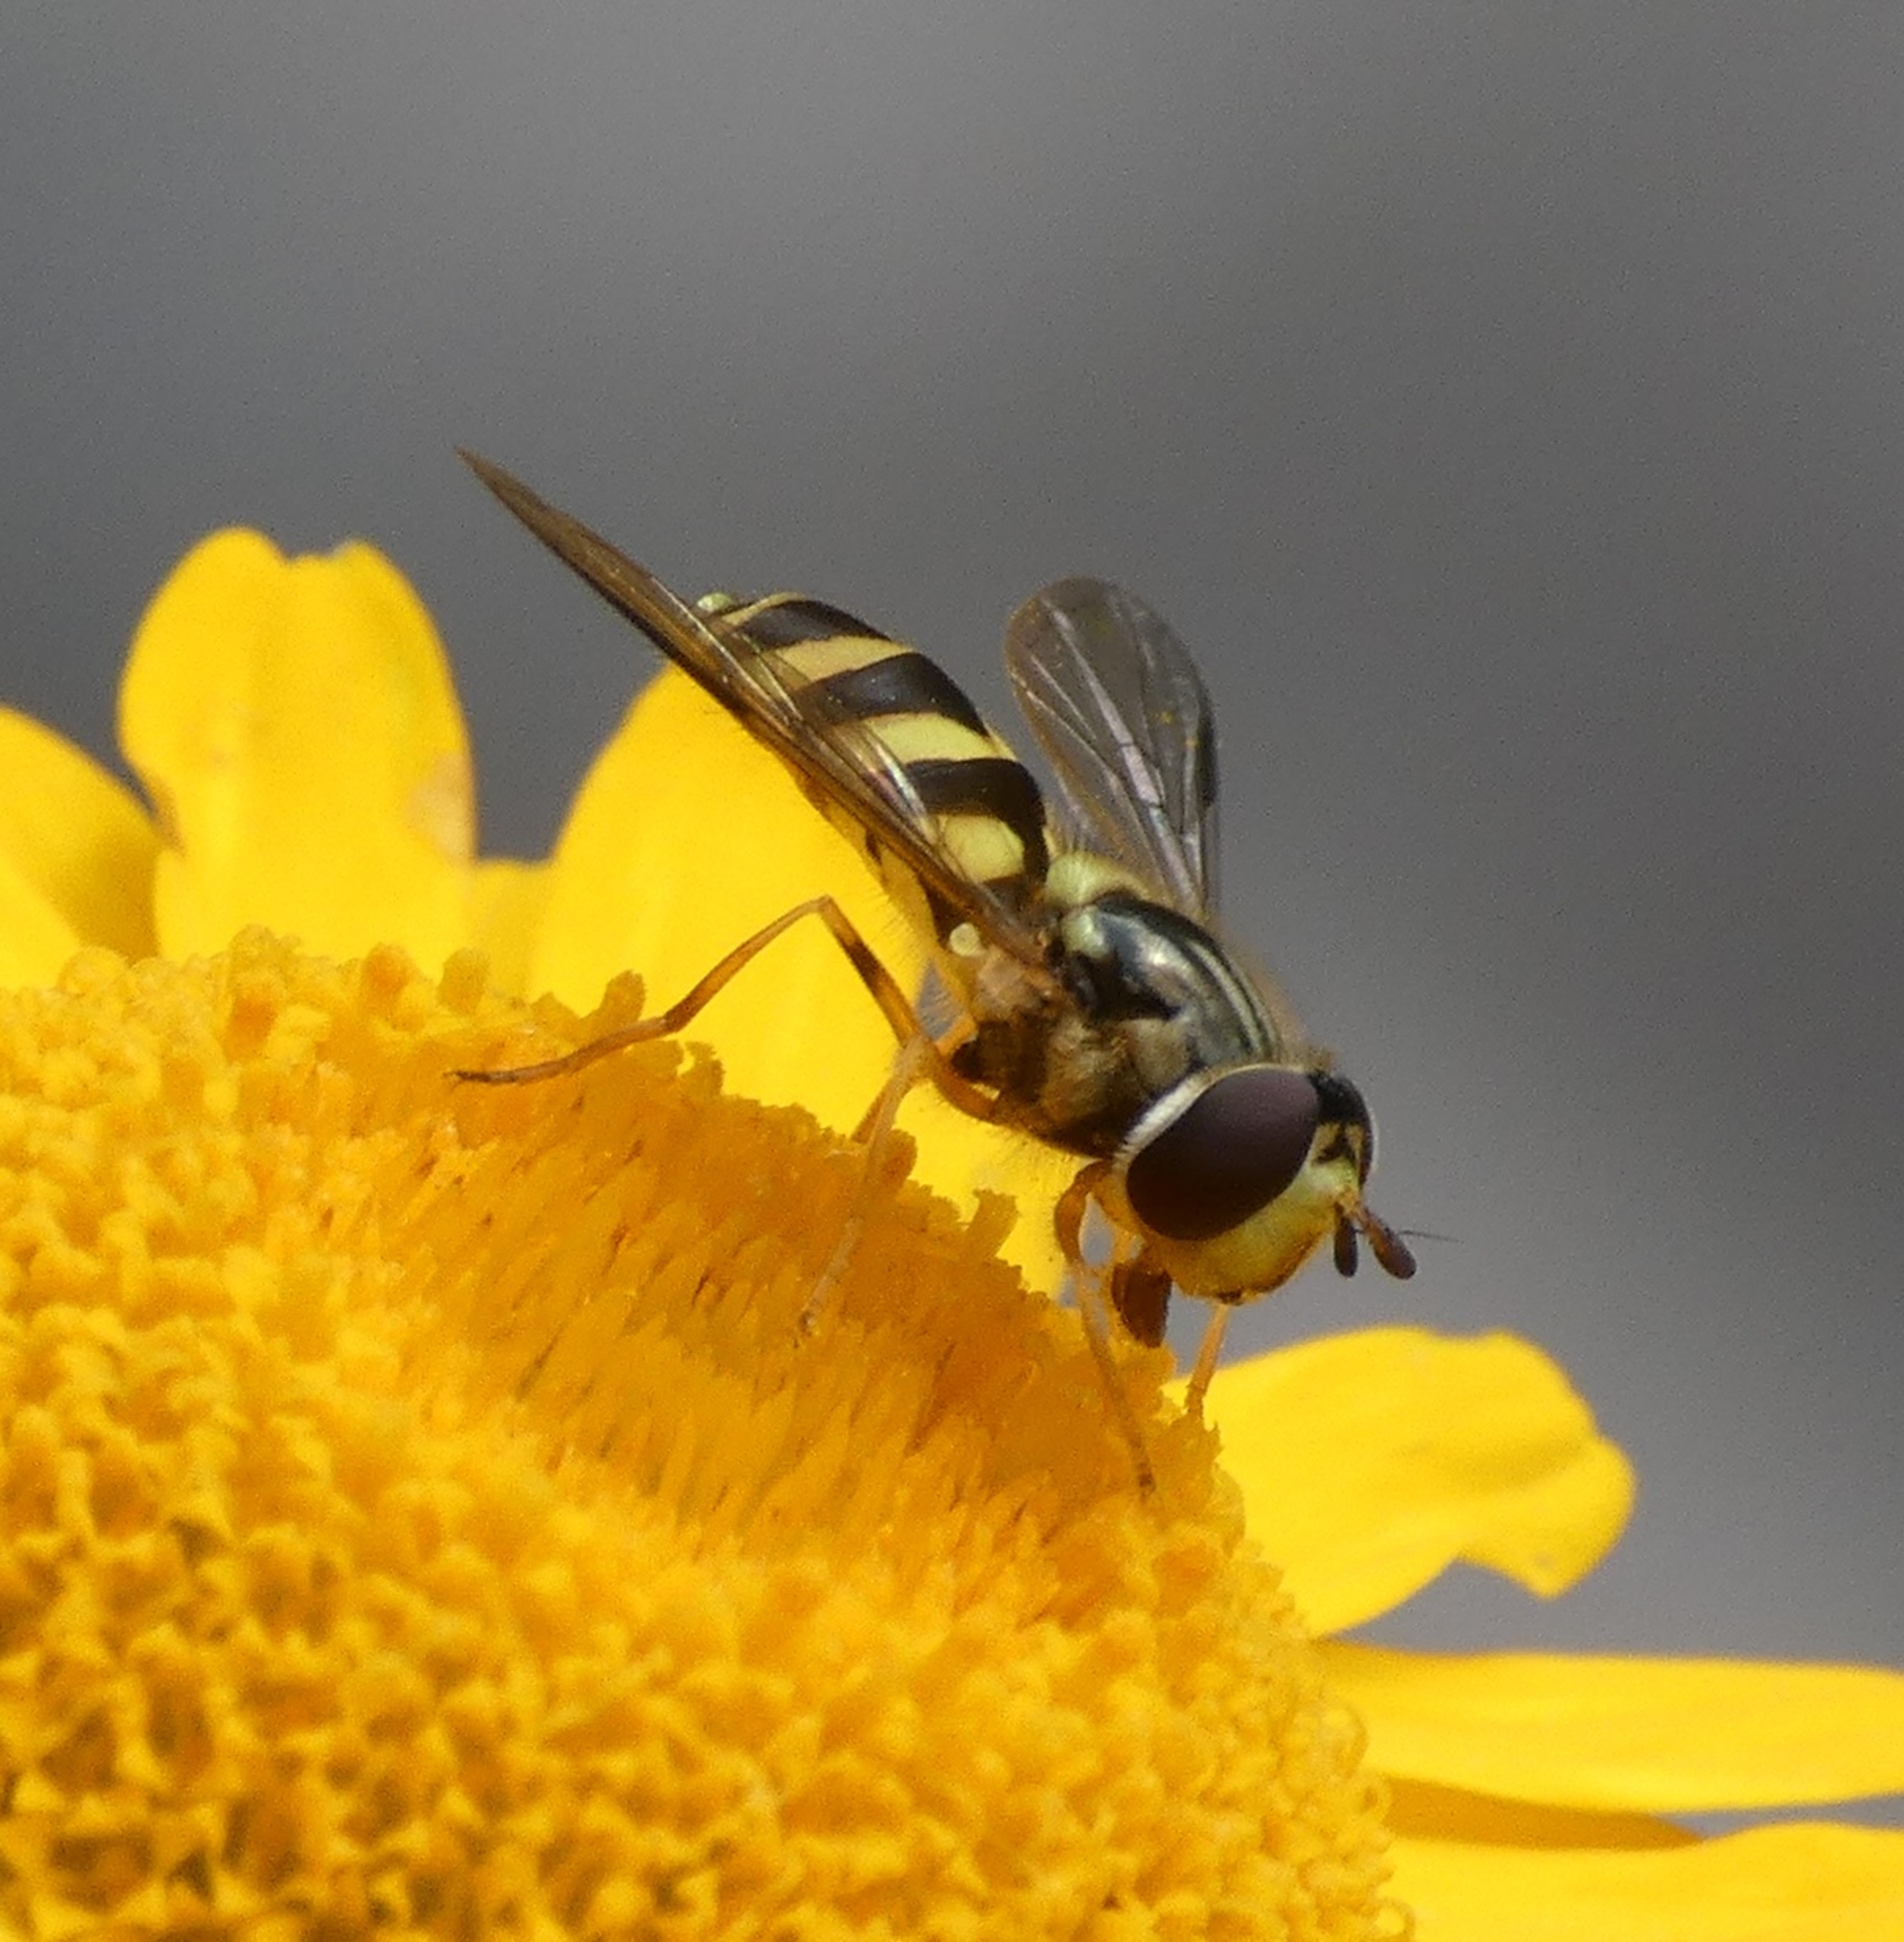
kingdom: Animalia
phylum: Arthropoda
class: Insecta
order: Diptera
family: Syrphidae
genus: Dasysyrphus
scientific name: Dasysyrphus albostriatus
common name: Stribet skovsvirreflue
